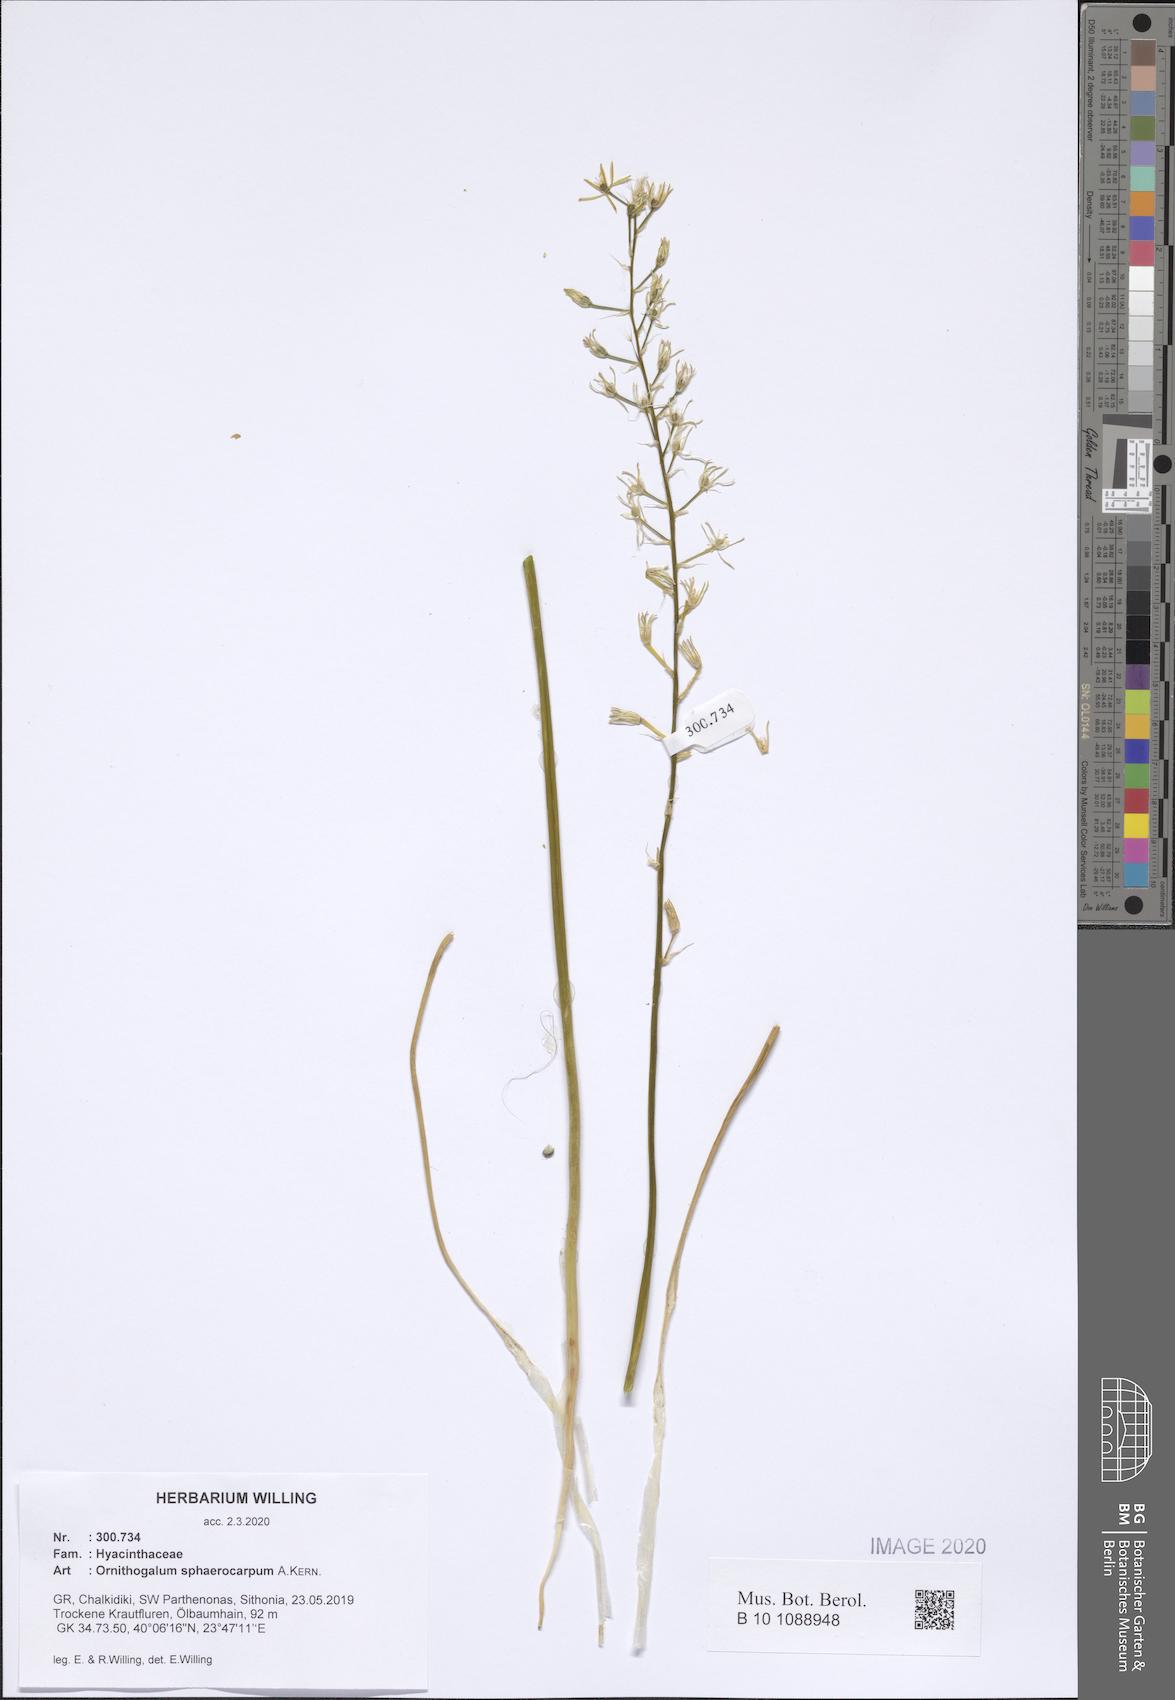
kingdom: Plantae
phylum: Tracheophyta
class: Liliopsida
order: Asparagales
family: Asparagaceae
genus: Ornithogalum
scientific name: Ornithogalum sphaerocarpum
